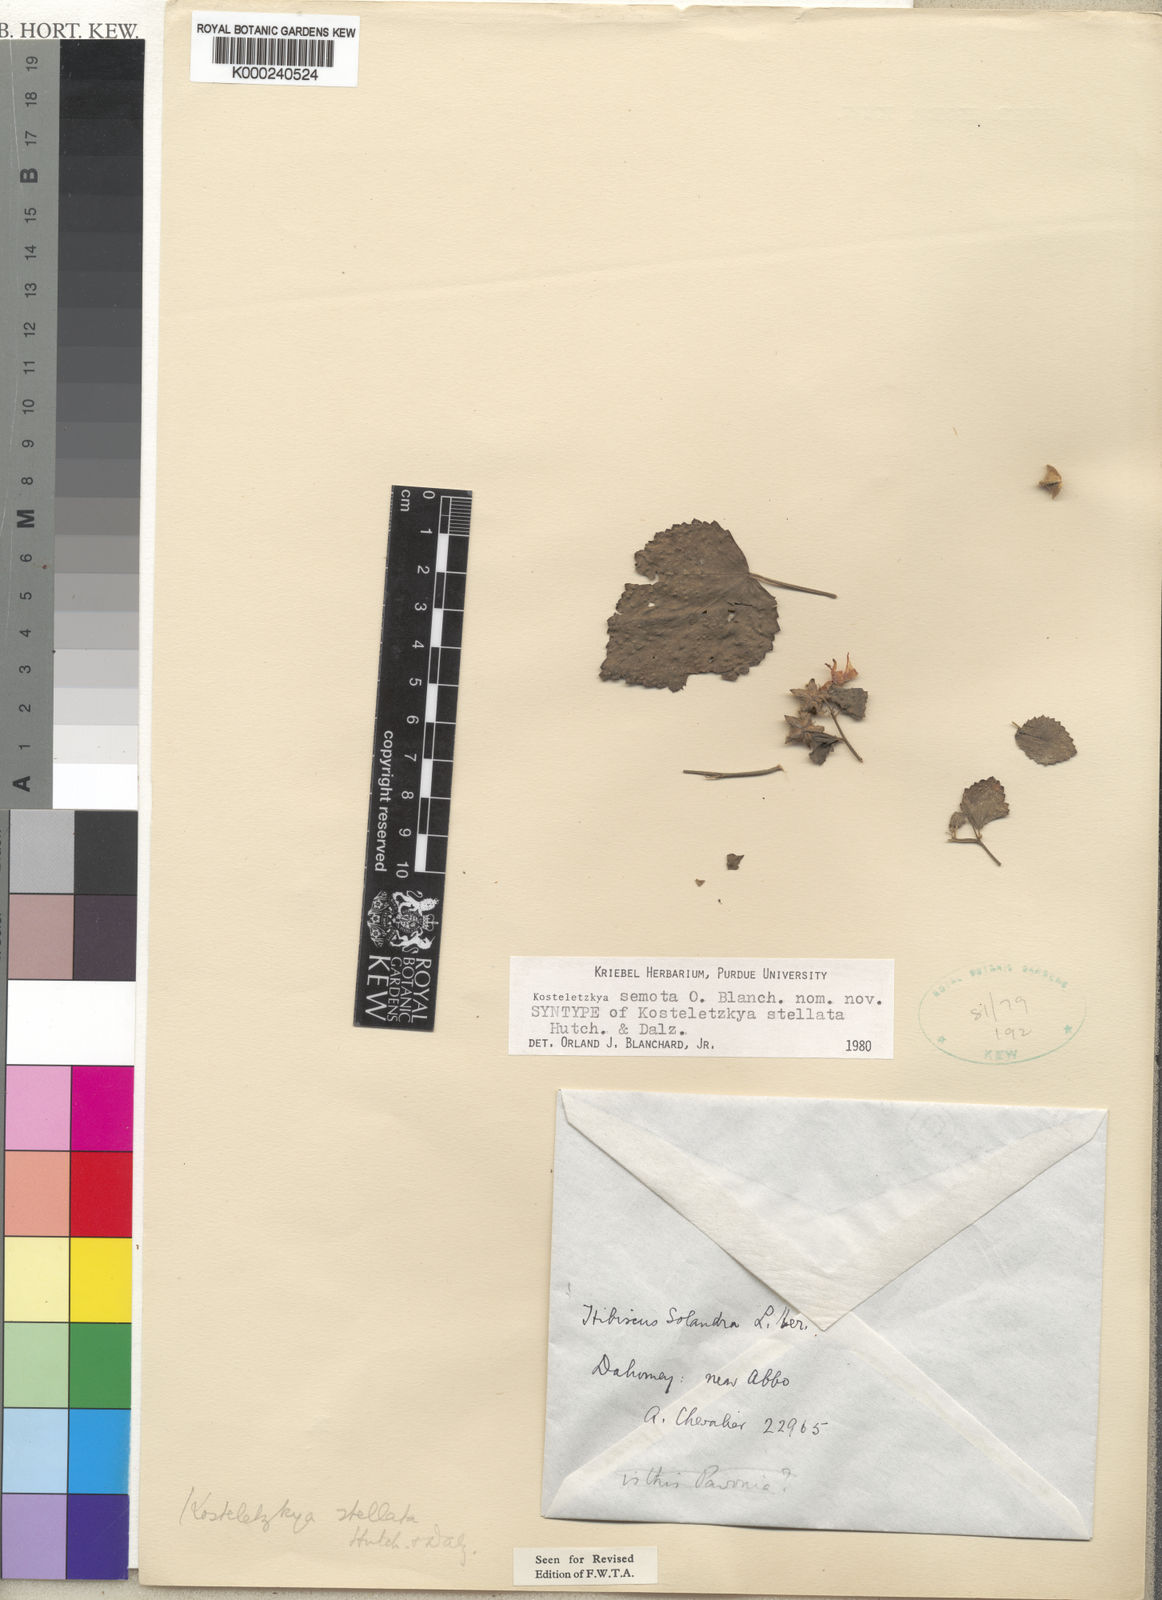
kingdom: Plantae
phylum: Tracheophyta
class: Magnoliopsida
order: Malvales
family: Malvaceae
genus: Kosteletzkya
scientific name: Kosteletzkya semota
